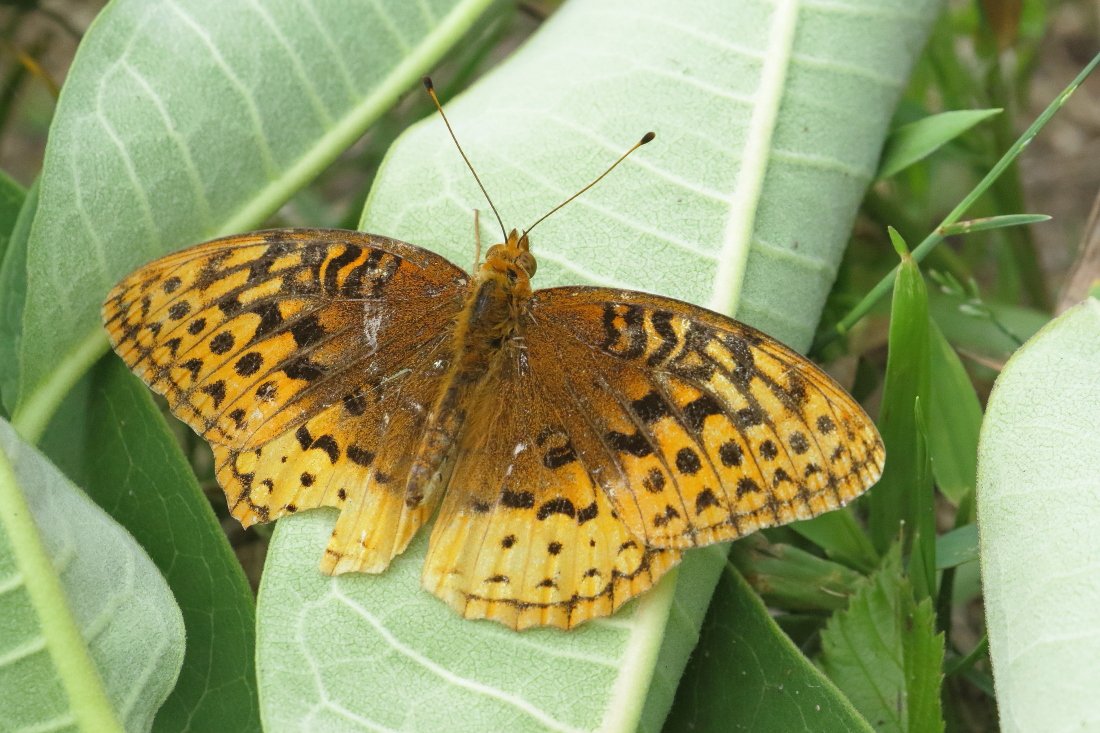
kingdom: Animalia
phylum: Arthropoda
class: Insecta
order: Lepidoptera
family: Nymphalidae
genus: Speyeria
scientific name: Speyeria cybele
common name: Great Spangled Fritillary
